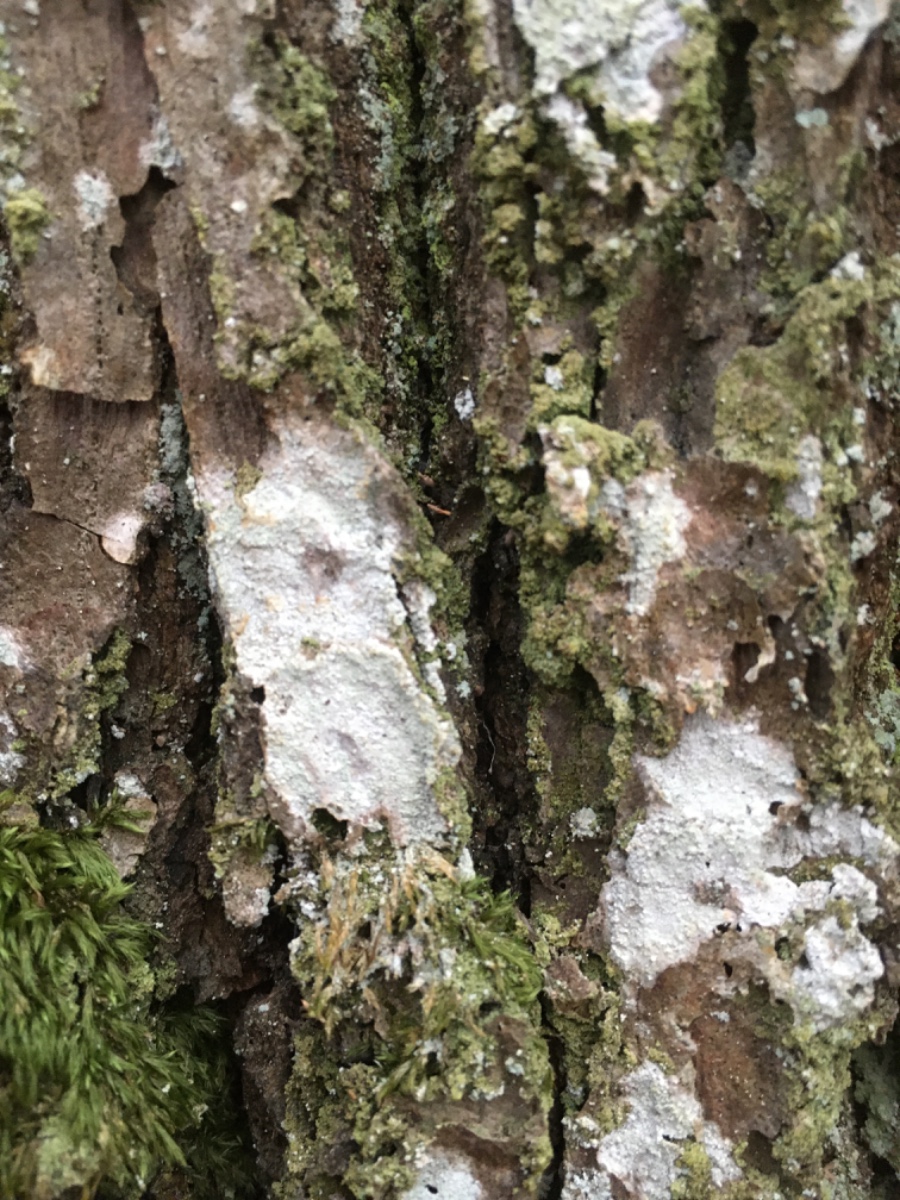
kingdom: Fungi
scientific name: Fungi
